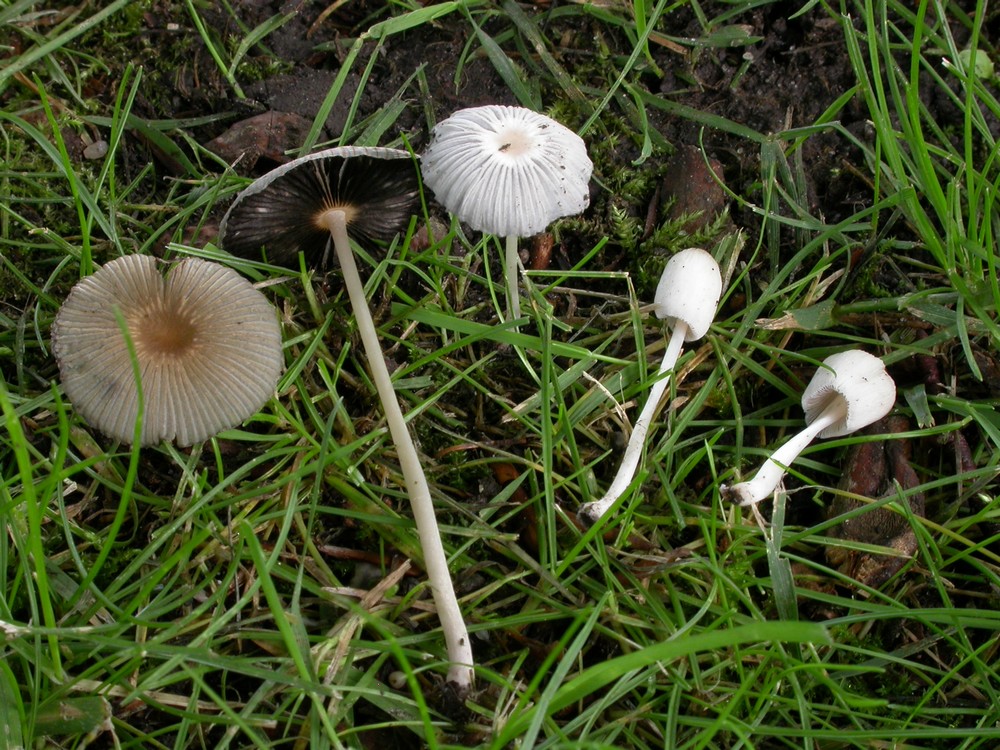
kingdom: Fungi
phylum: Basidiomycota
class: Agaricomycetes
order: Agaricales
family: Psathyrellaceae
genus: Parasola
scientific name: Parasola plicatilis
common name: plæne-hjulhat
